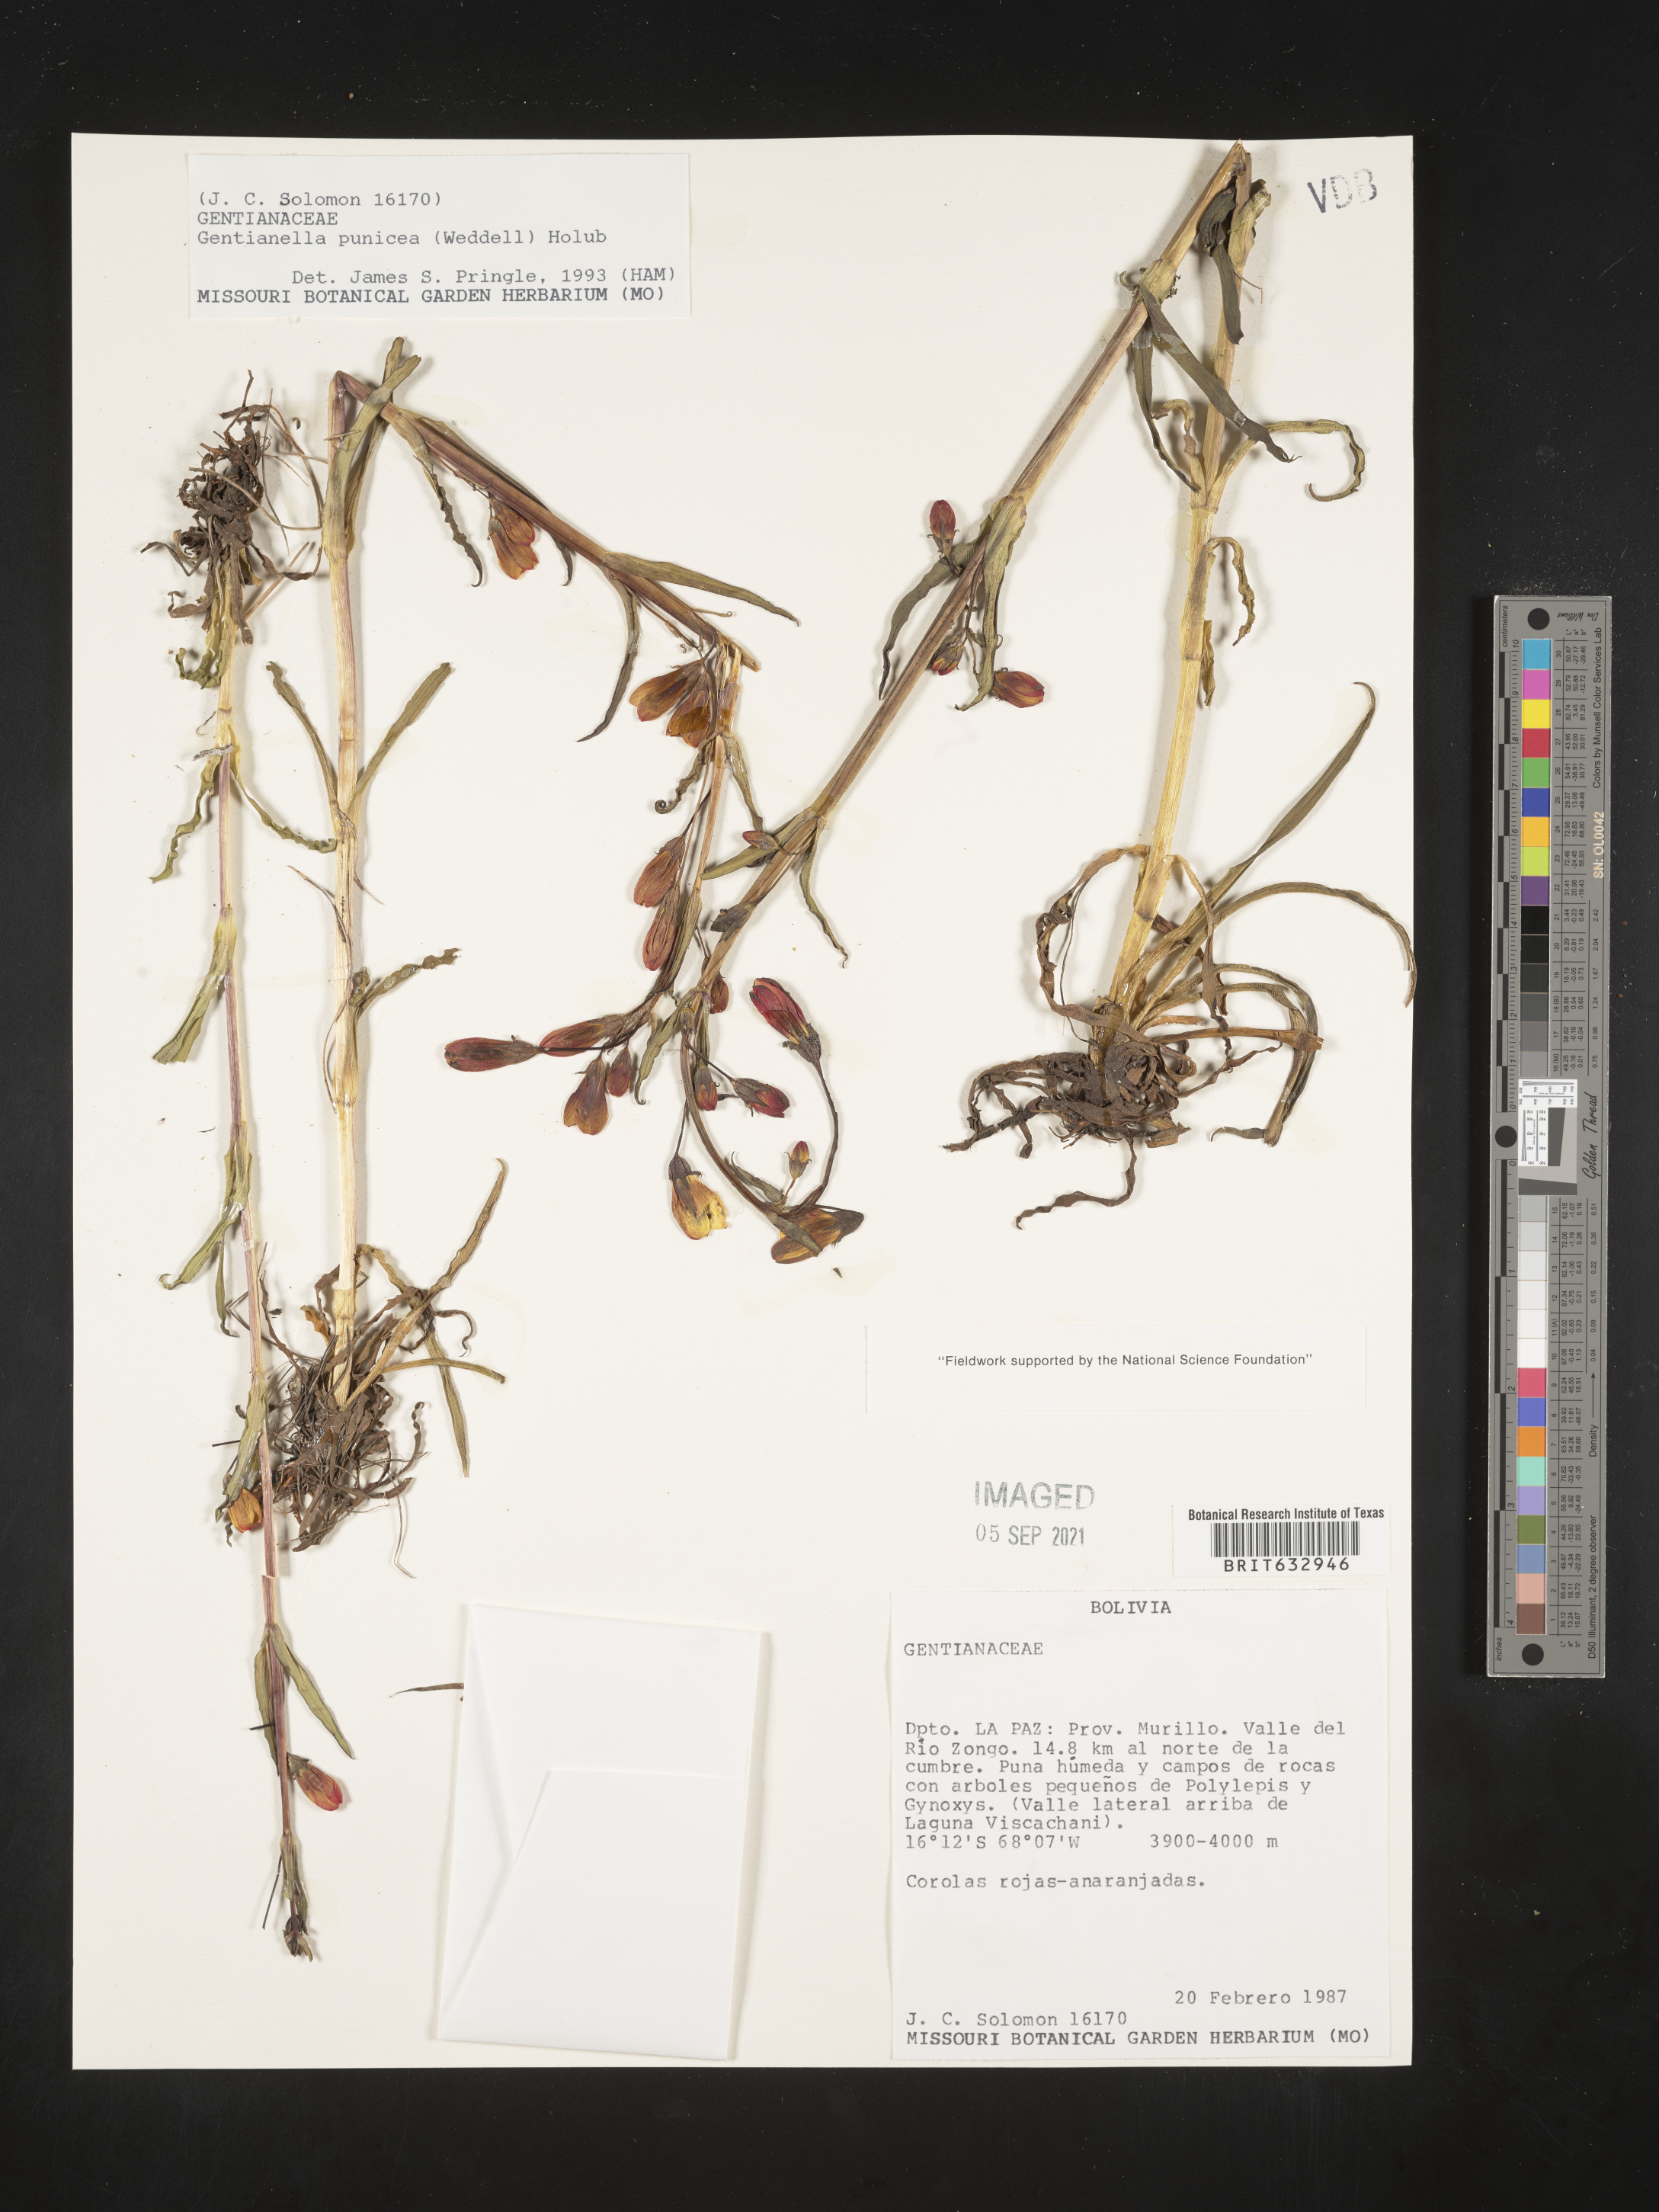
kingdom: Plantae
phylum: Tracheophyta
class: Magnoliopsida
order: Gentianales
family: Gentianaceae
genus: Gentiana
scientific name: Gentiana
